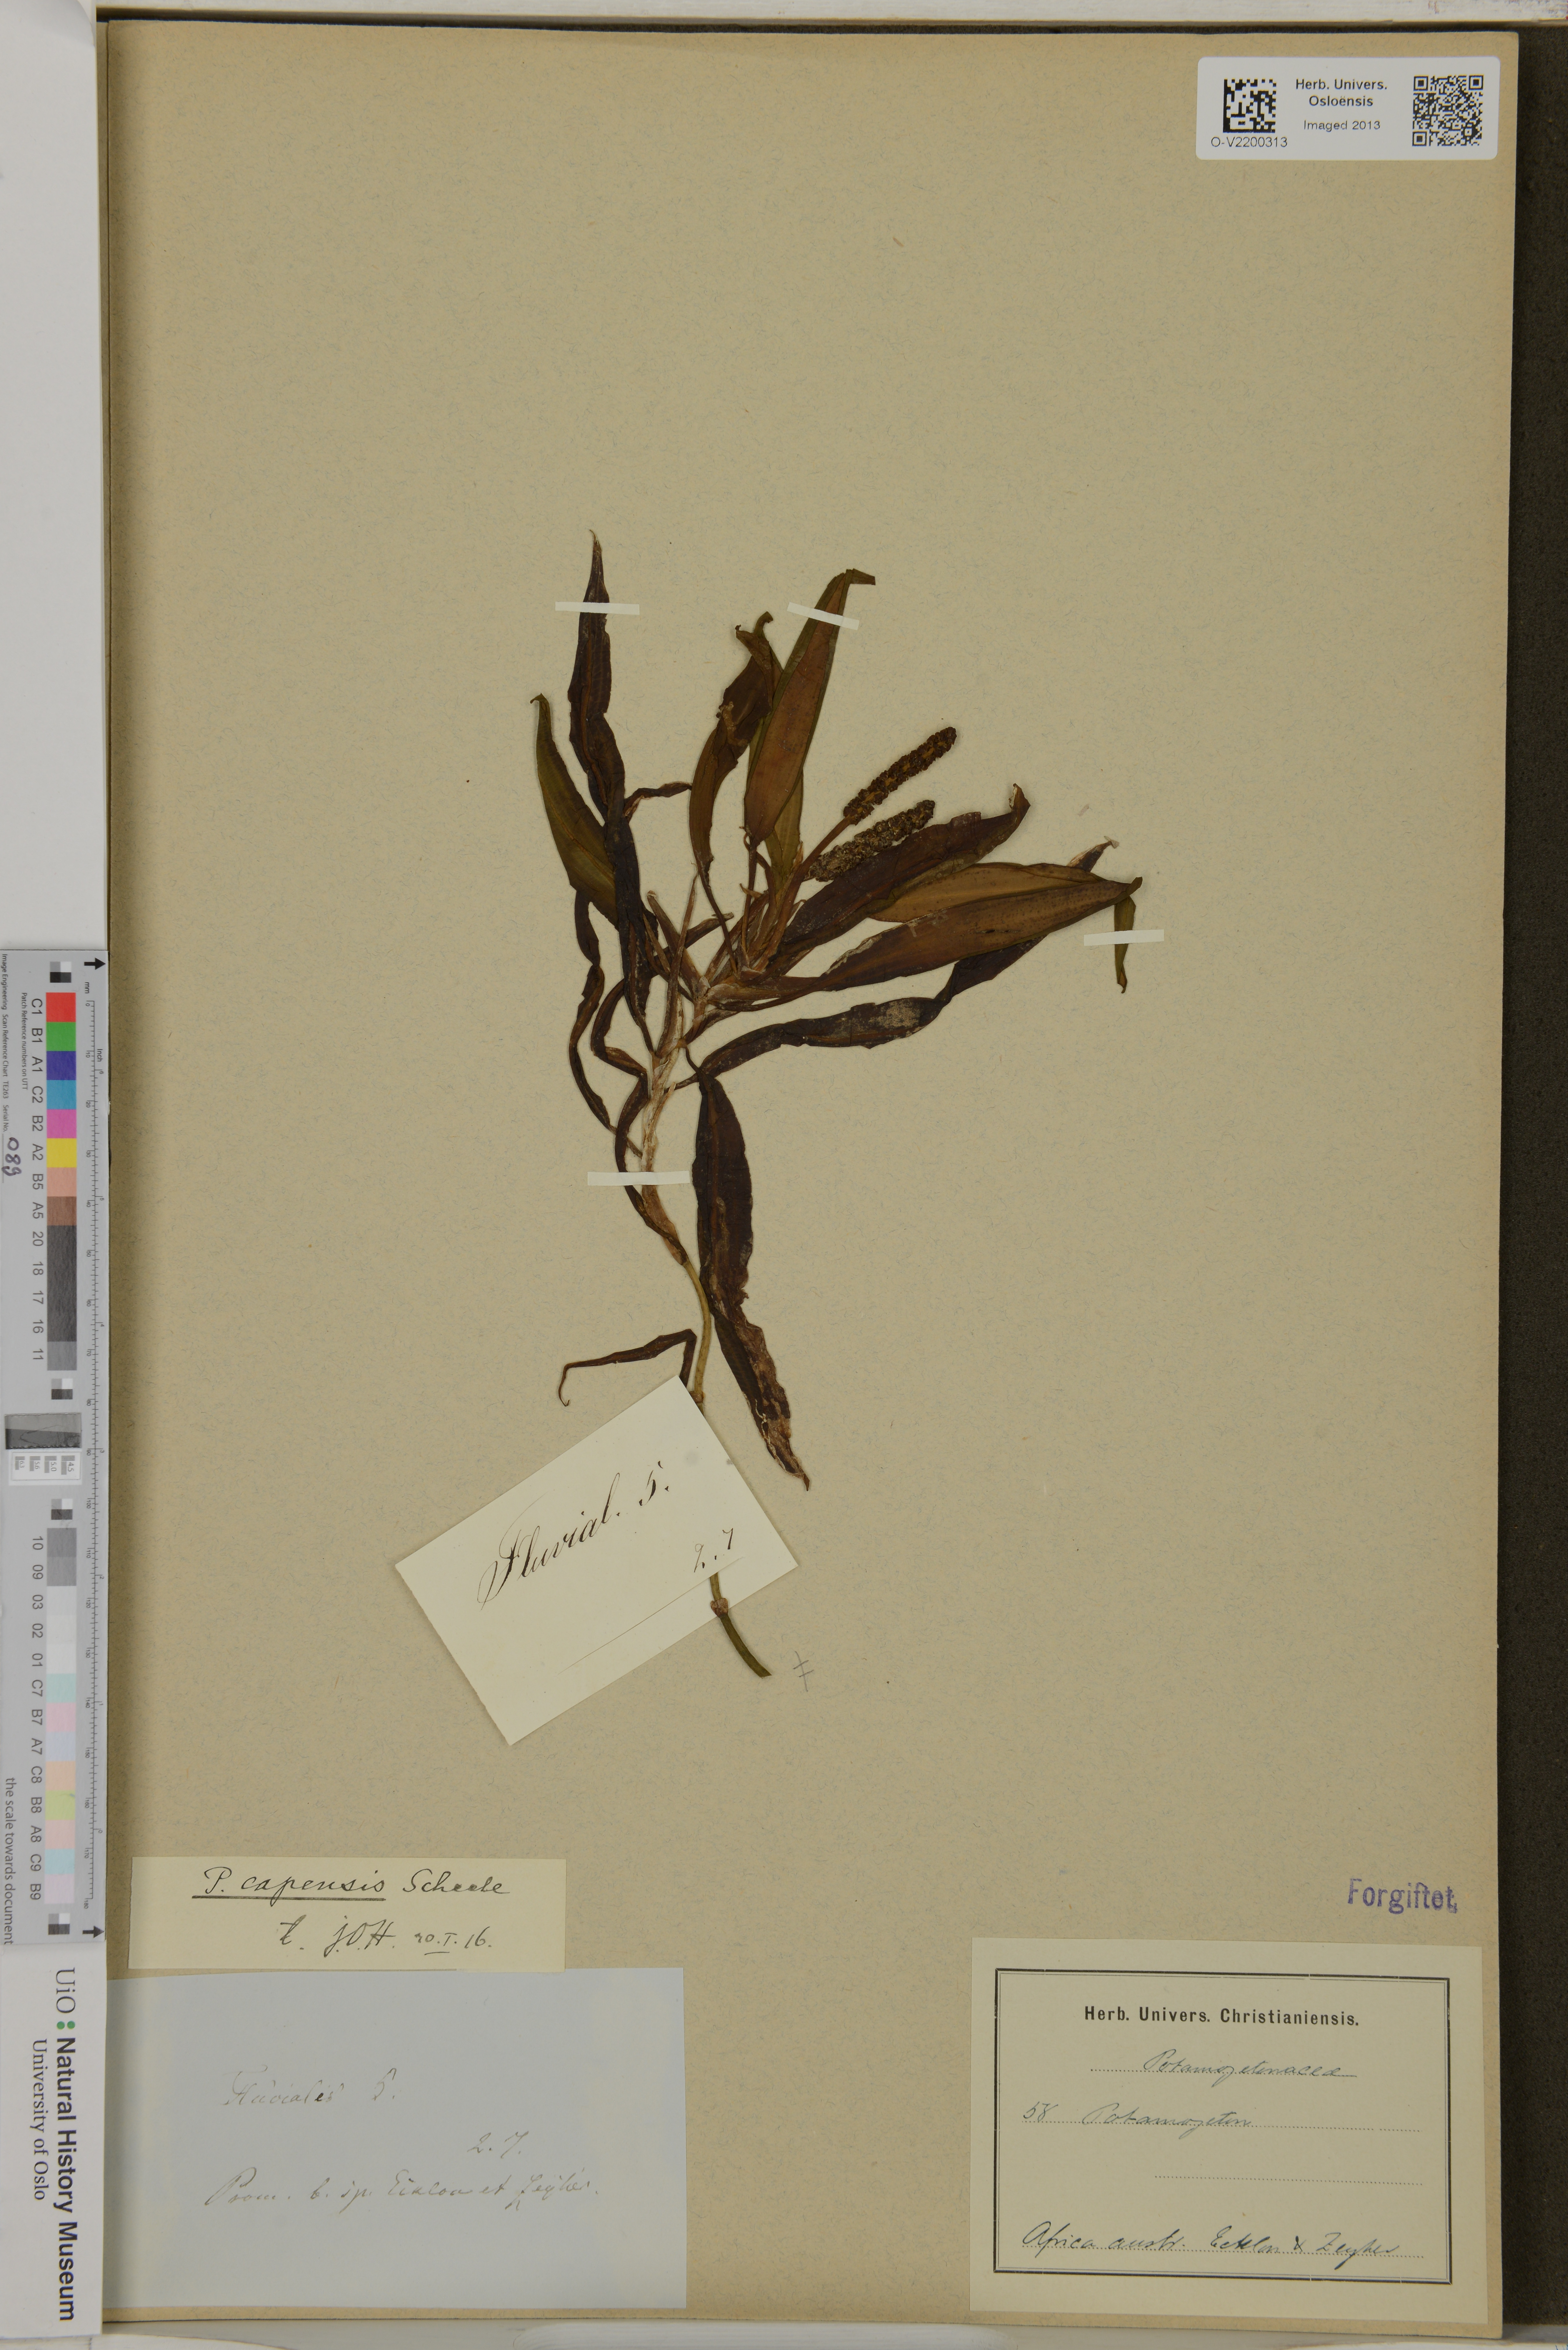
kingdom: Plantae
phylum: Tracheophyta
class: Liliopsida
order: Alismatales
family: Potamogetonaceae
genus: Potamogeton
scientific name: Potamogeton
